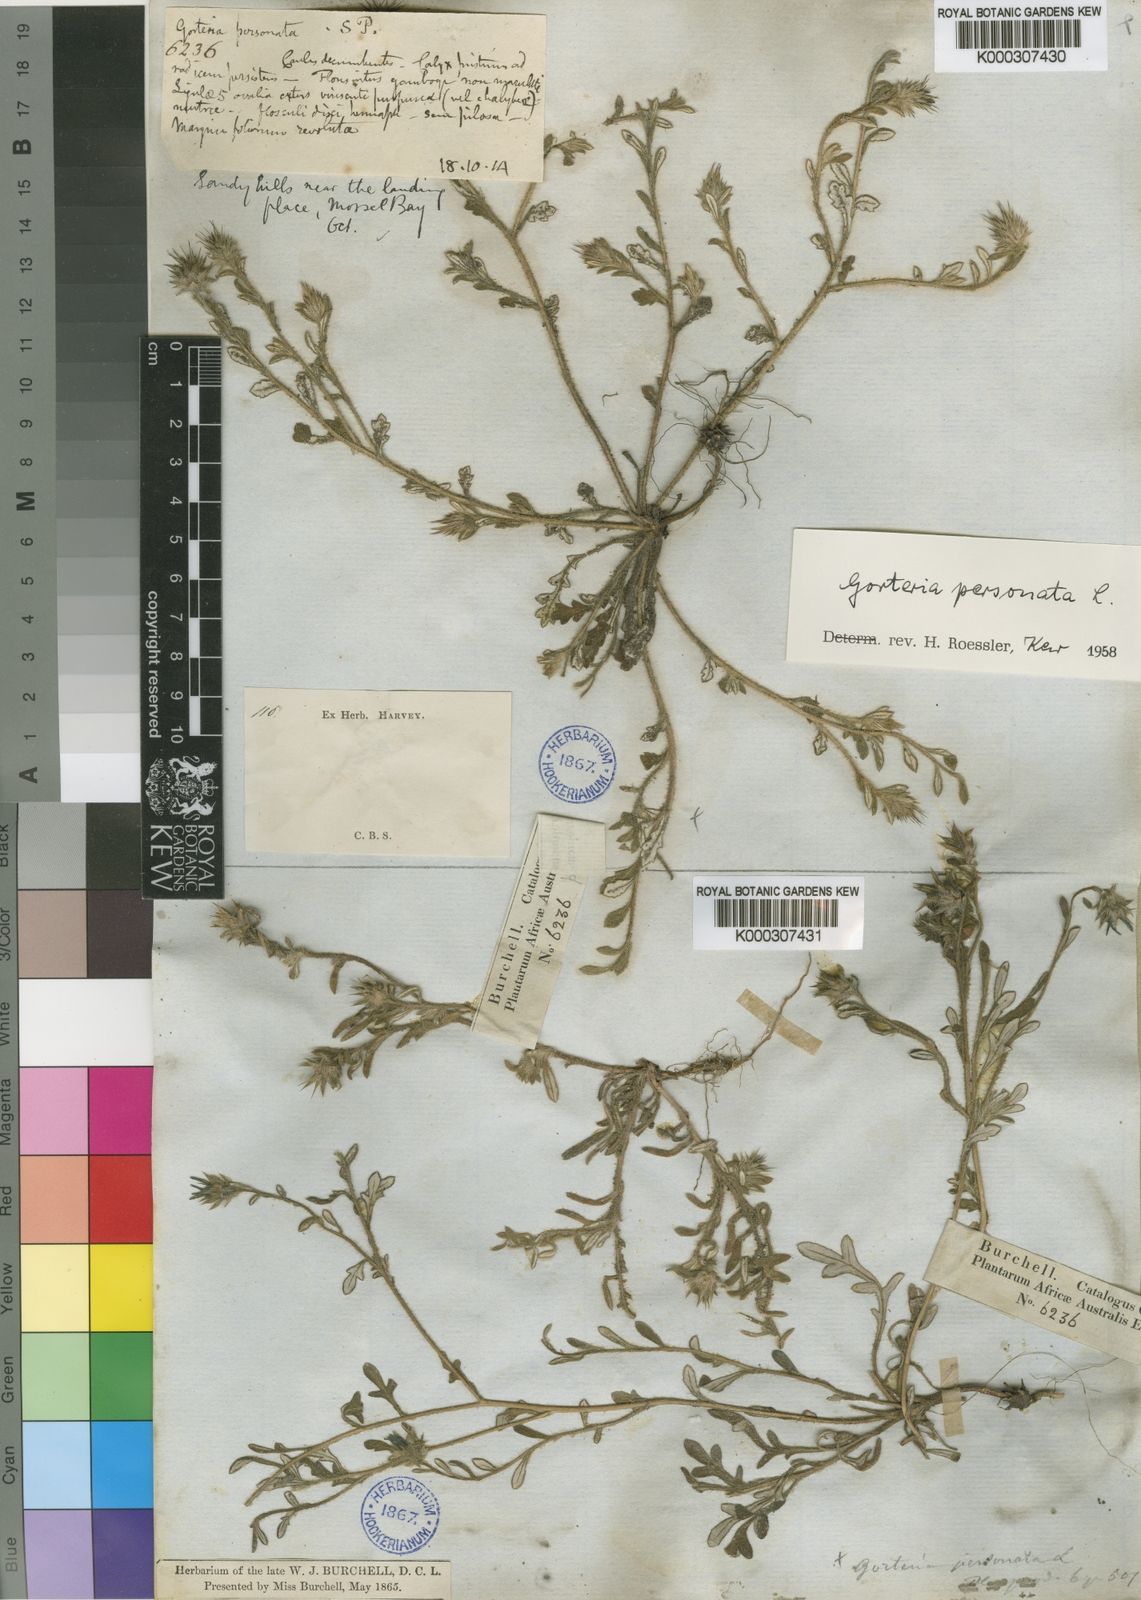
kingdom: Plantae
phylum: Tracheophyta
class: Magnoliopsida
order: Asterales
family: Asteraceae
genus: Gorteria
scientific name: Gorteria personata
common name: Gorteria
